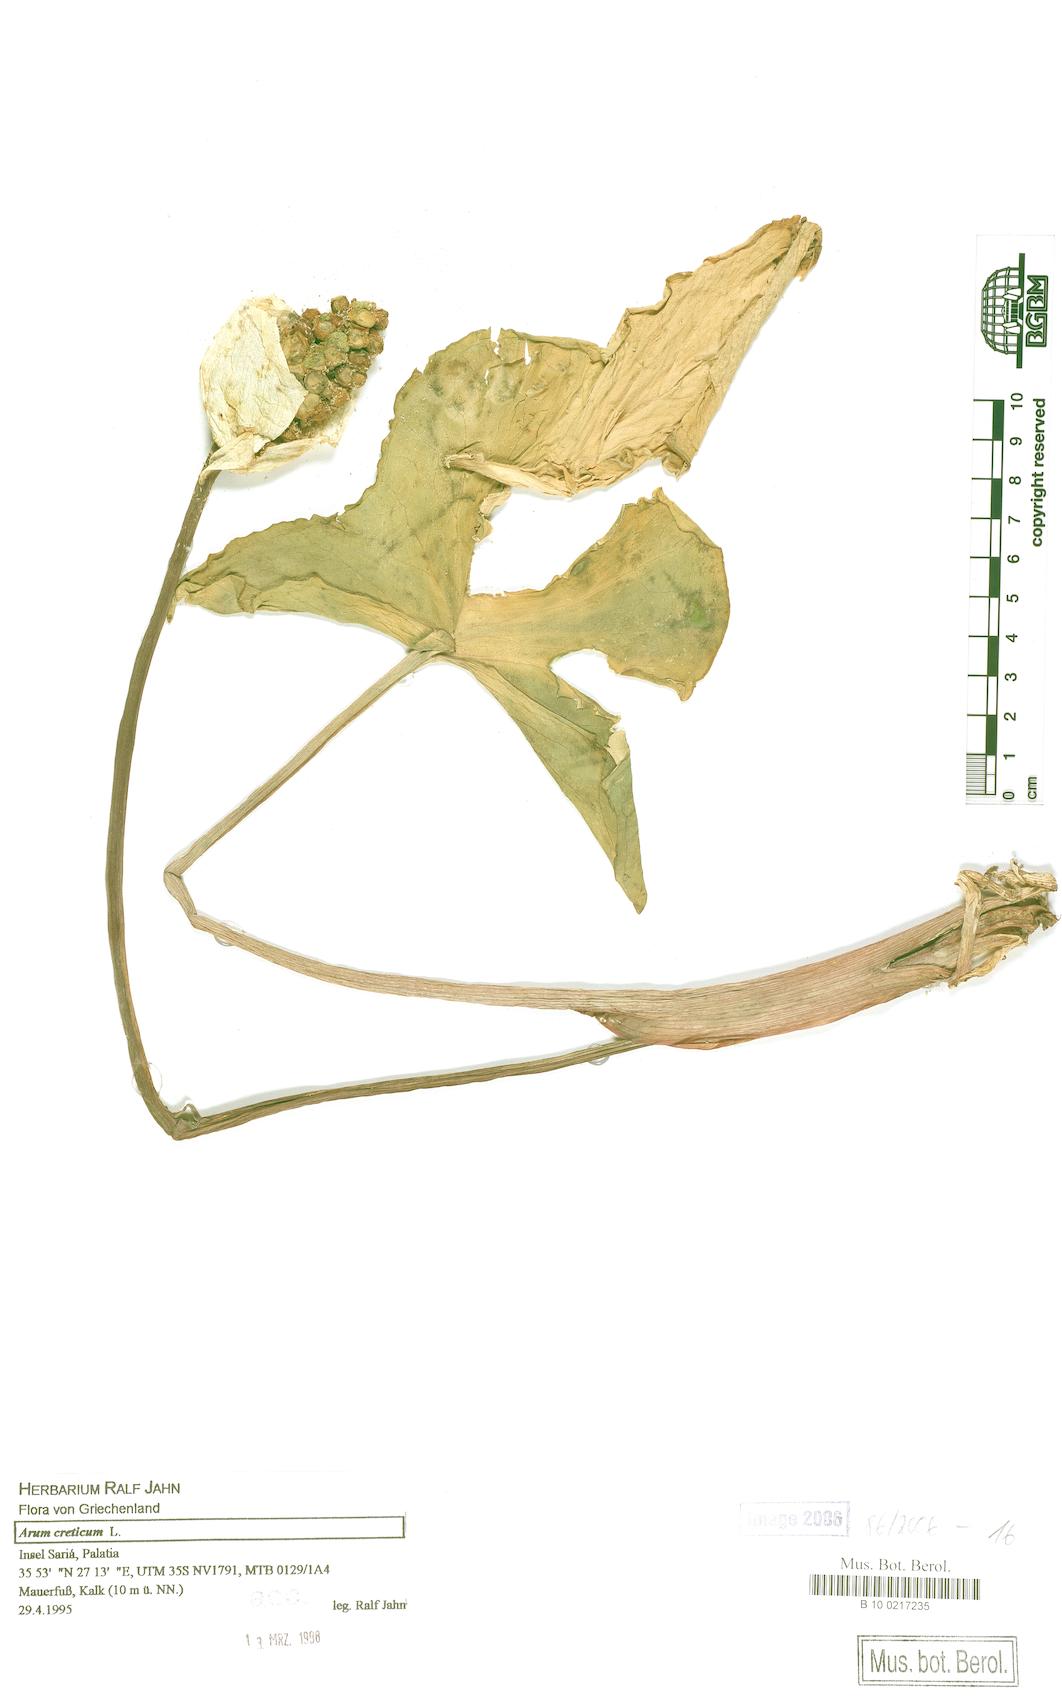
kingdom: Plantae
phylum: Tracheophyta
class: Liliopsida
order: Alismatales
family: Araceae
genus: Arum
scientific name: Arum creticum
